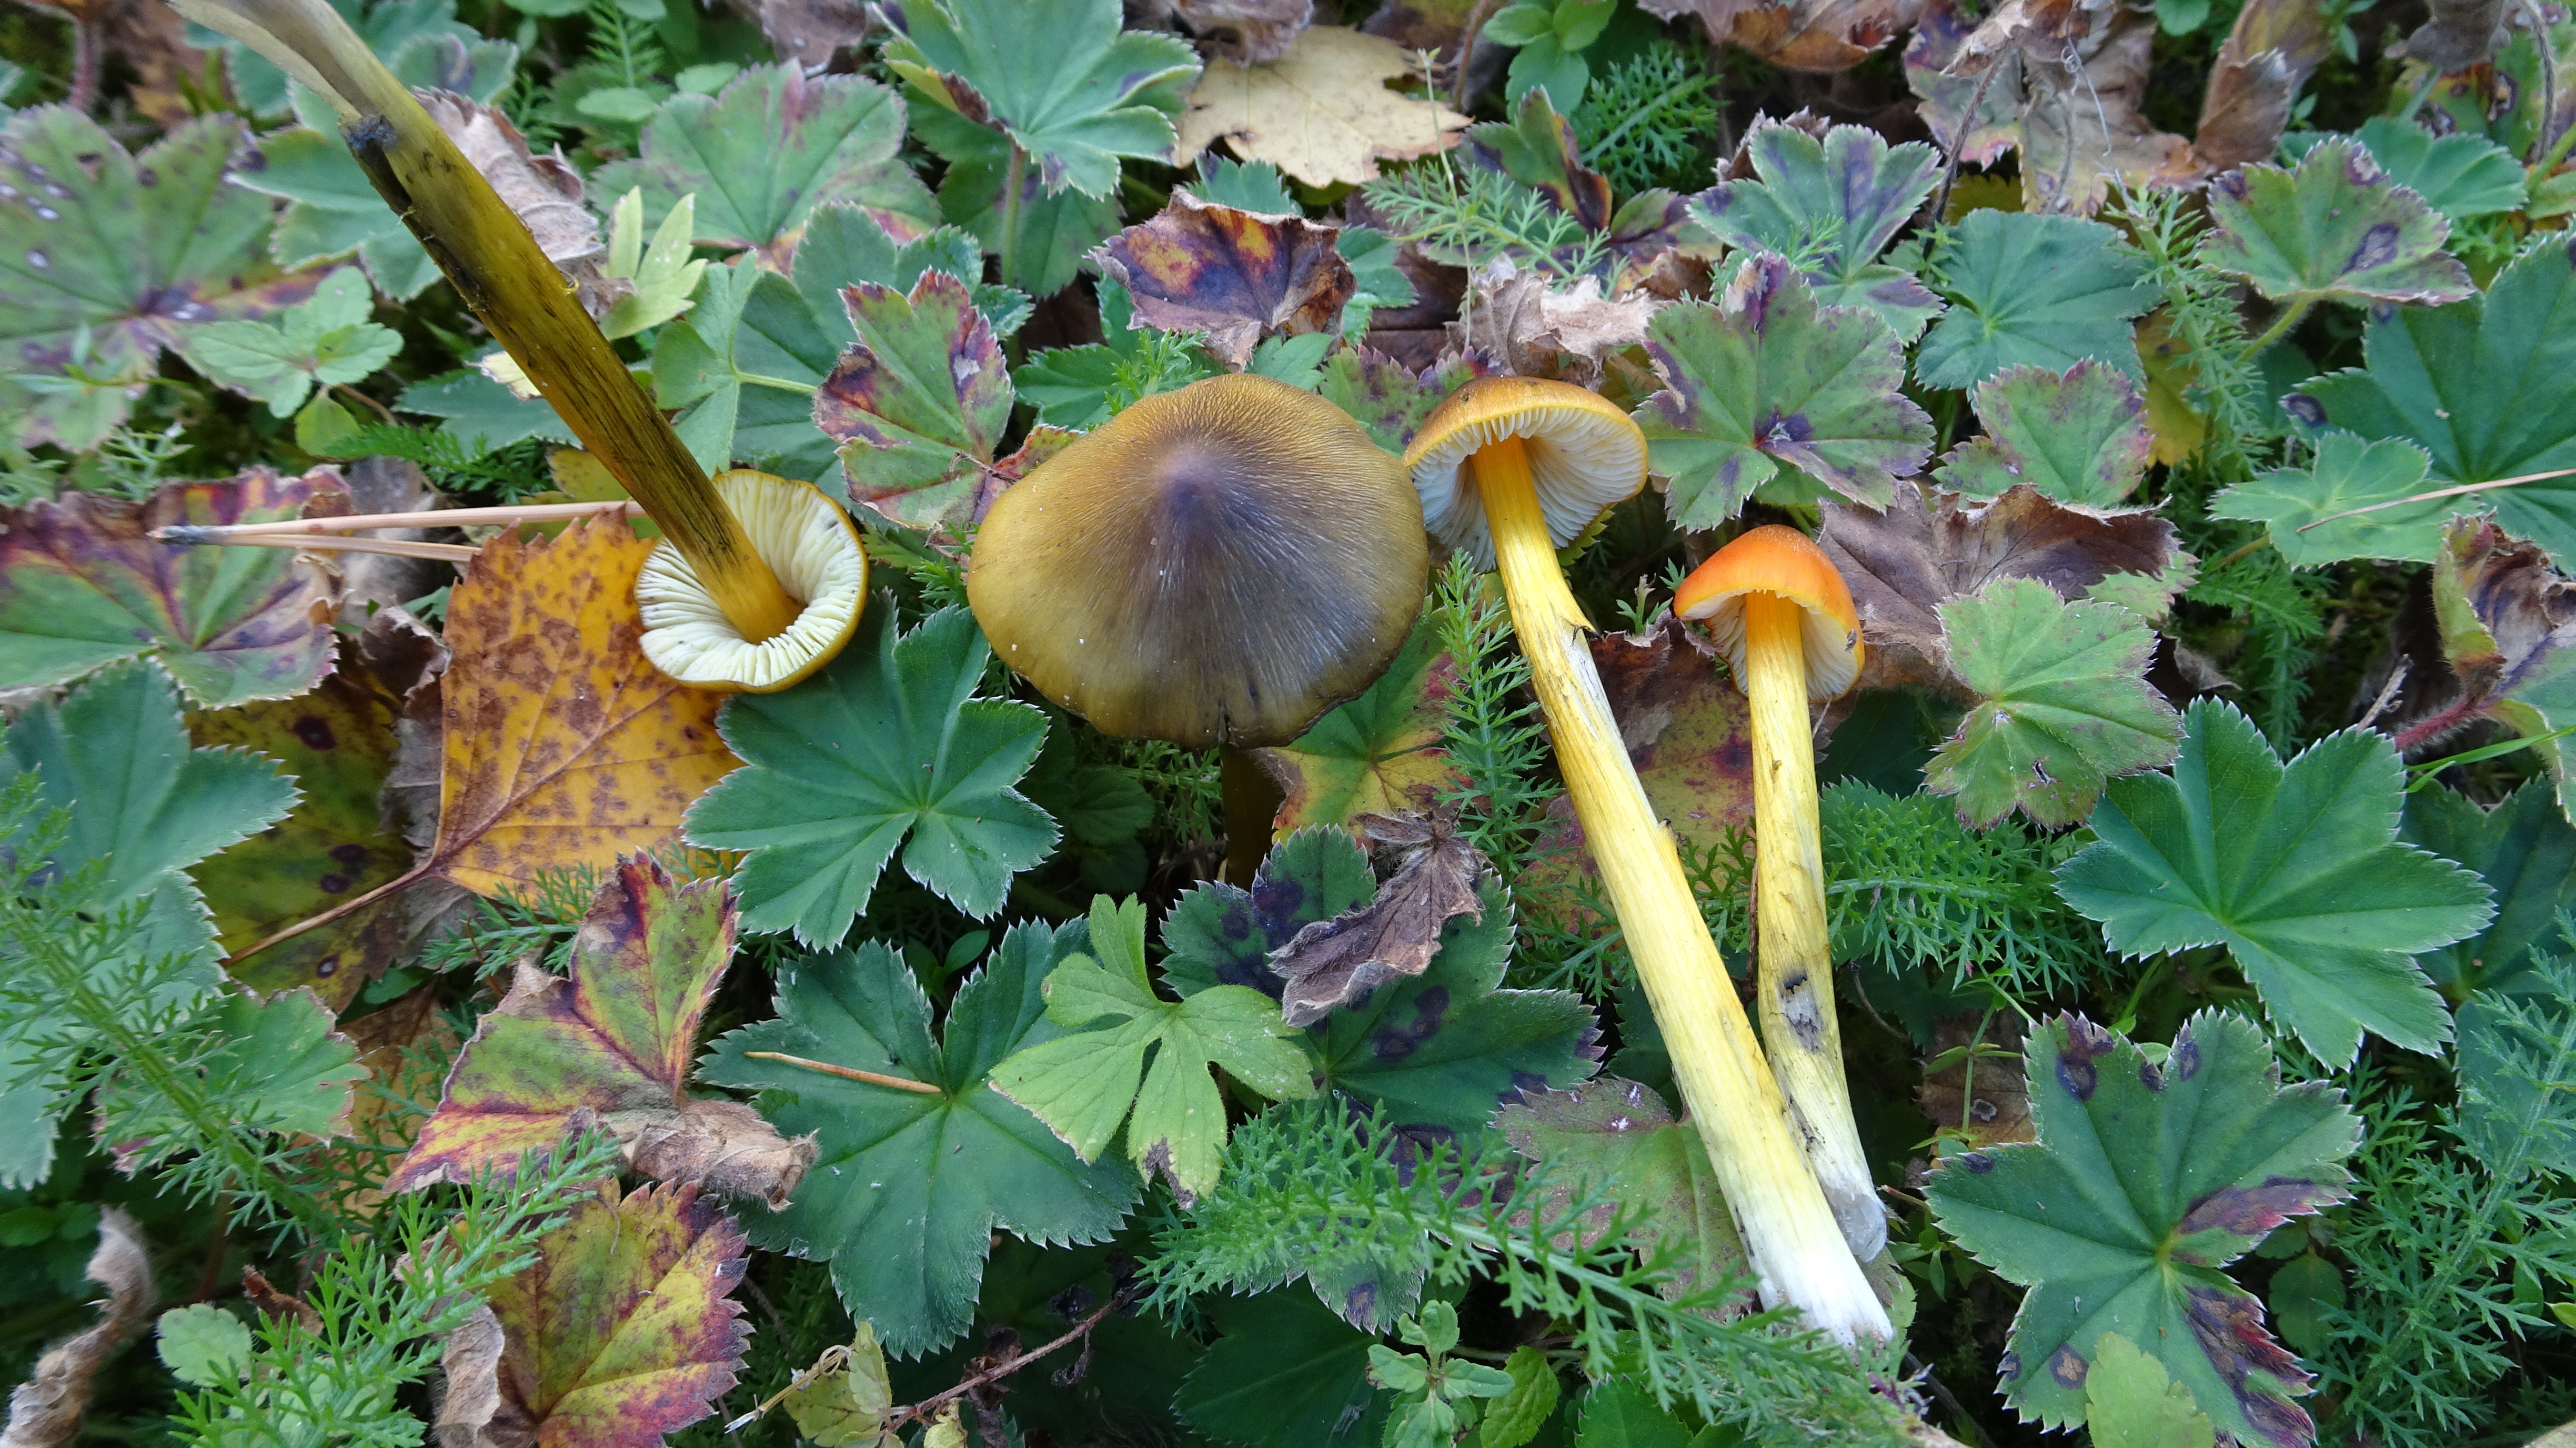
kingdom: Fungi
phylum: Basidiomycota
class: Agaricomycetes
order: Agaricales
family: Hygrophoraceae
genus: Hygrocybe
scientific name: Hygrocybe conica
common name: Blackening wax-cap
